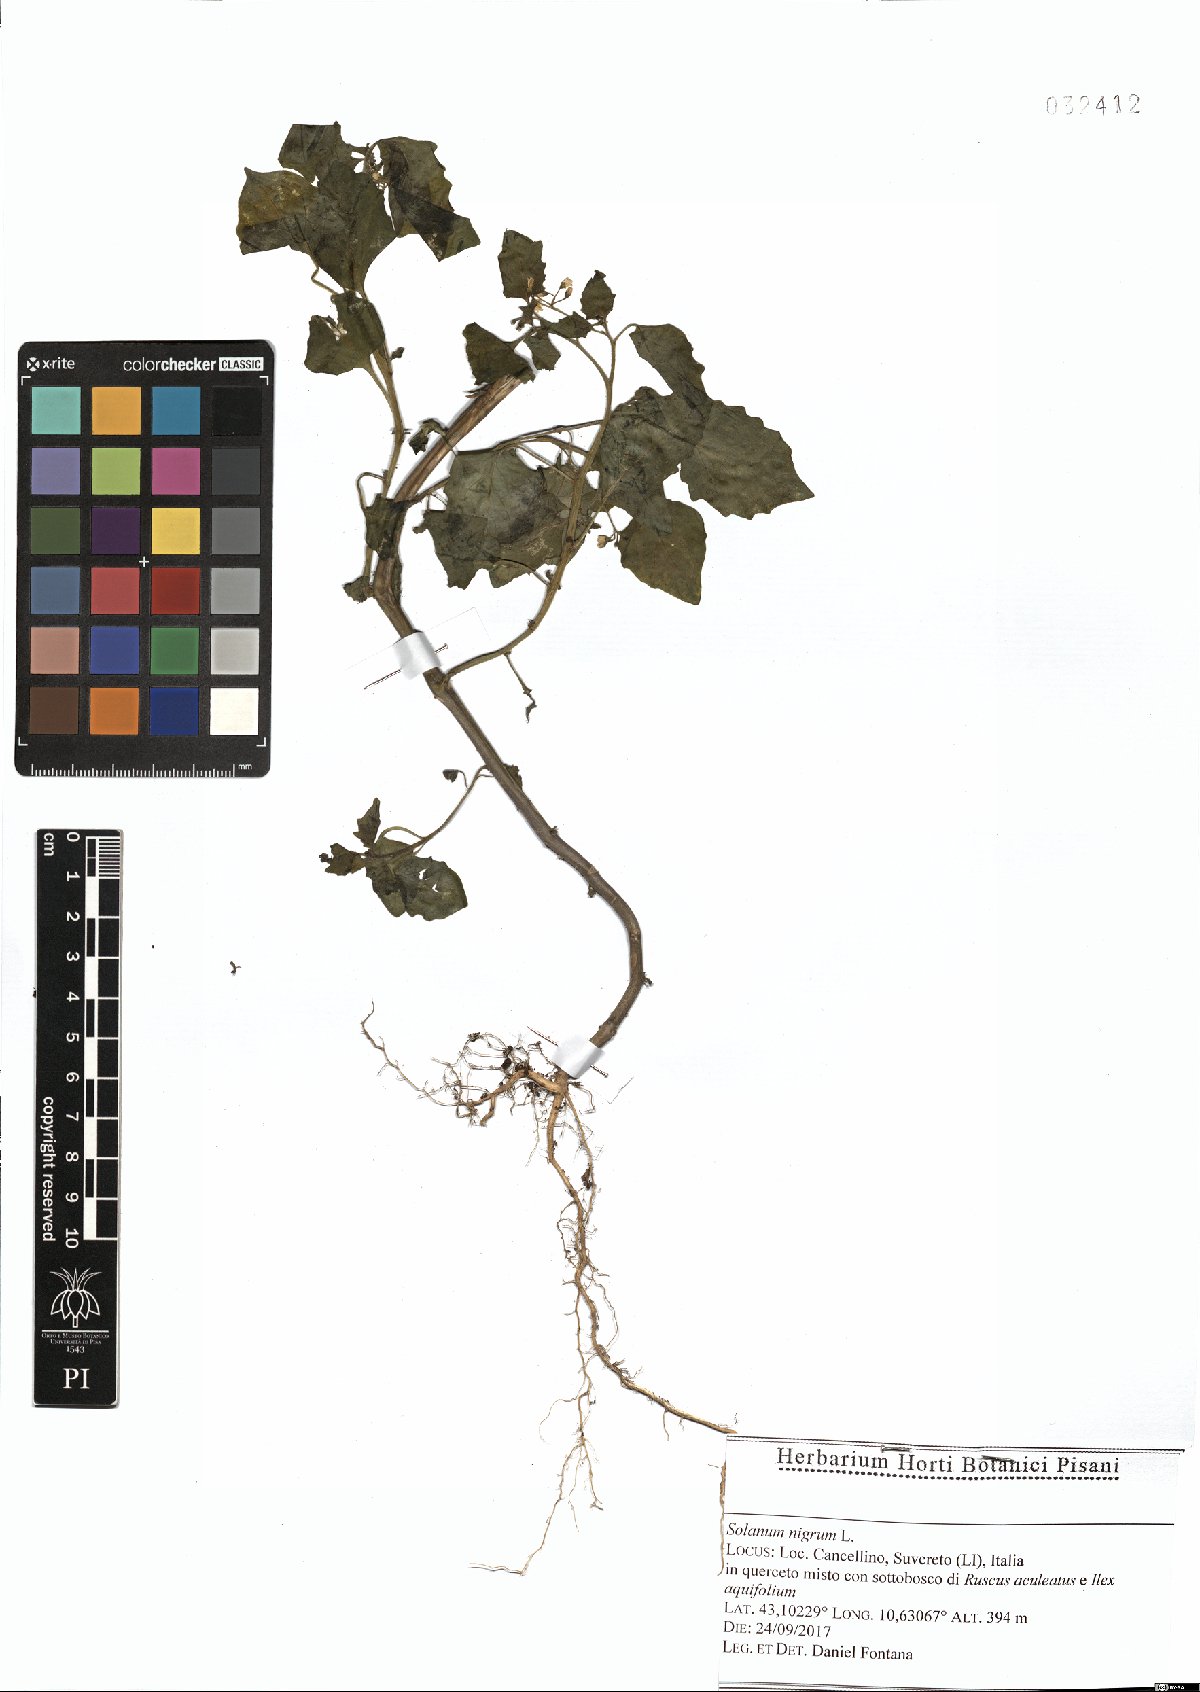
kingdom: Plantae
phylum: Tracheophyta
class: Magnoliopsida
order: Solanales
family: Solanaceae
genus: Solanum
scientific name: Solanum nigrum
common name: Black nightshade
